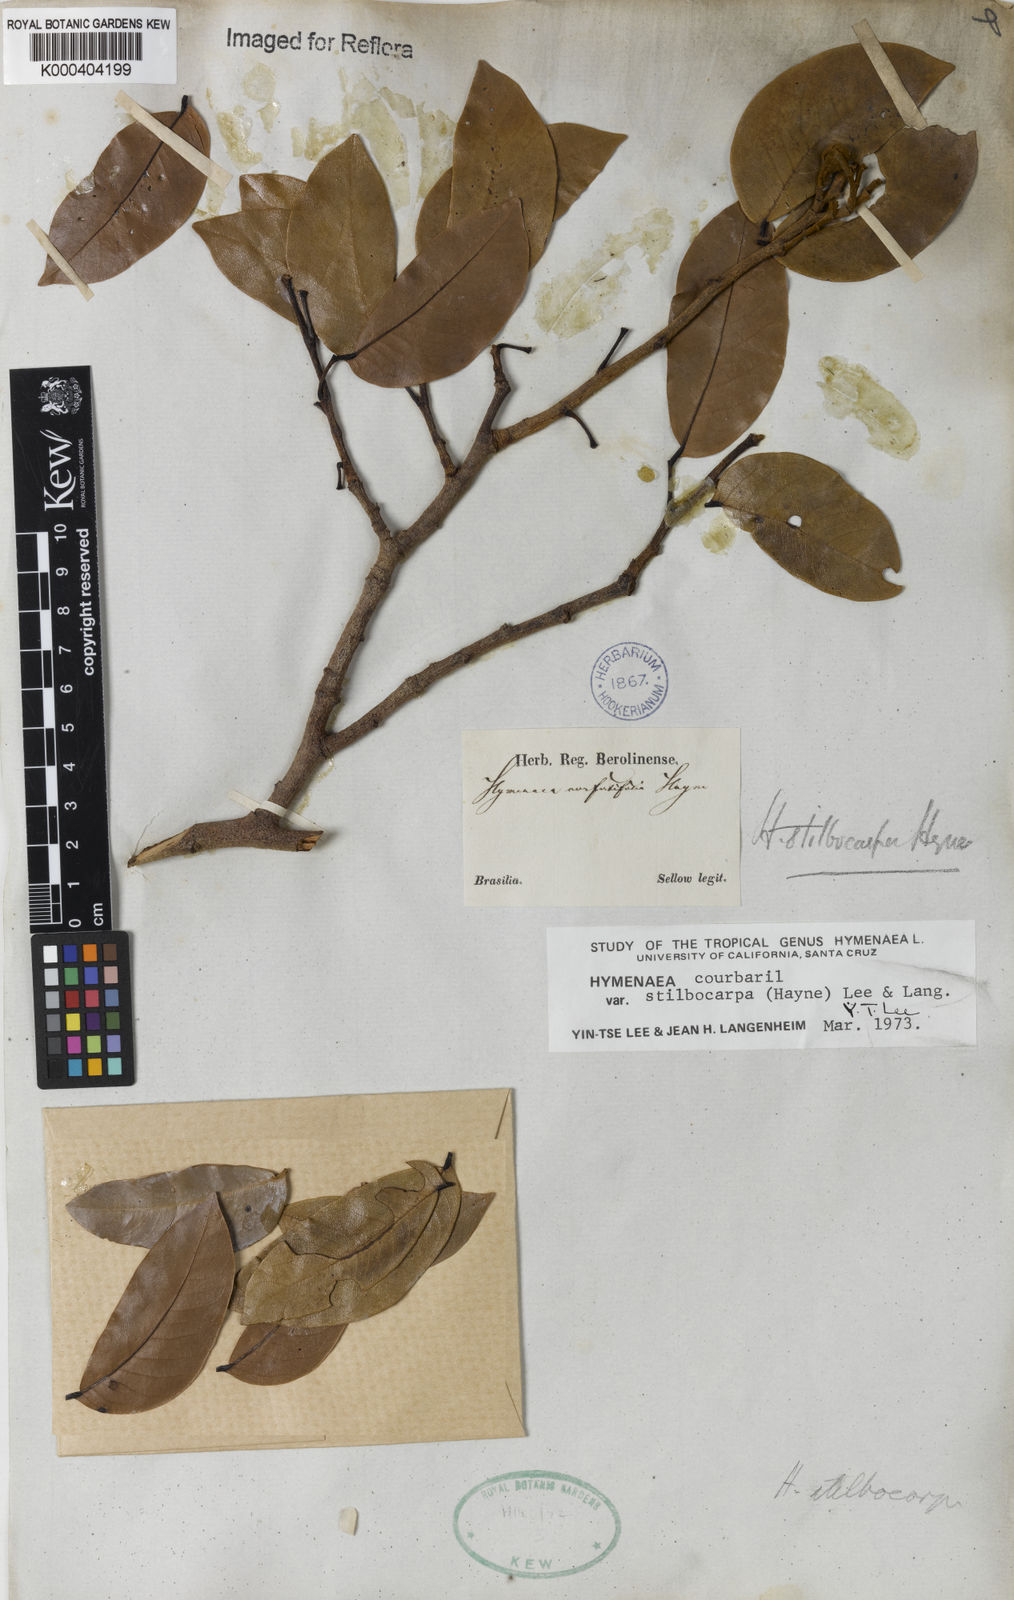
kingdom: Plantae
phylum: Tracheophyta
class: Magnoliopsida
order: Fabales
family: Fabaceae
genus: Hymenaea
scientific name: Hymenaea courbaril
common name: Brazilian copal
